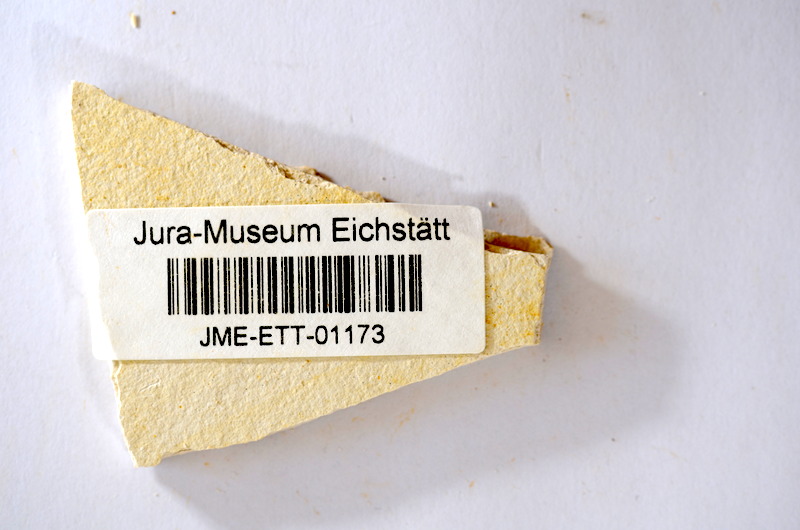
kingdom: Animalia
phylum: Chordata
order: Salmoniformes
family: Orthogonikleithridae
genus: Orthogonikleithrus
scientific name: Orthogonikleithrus hoelli
